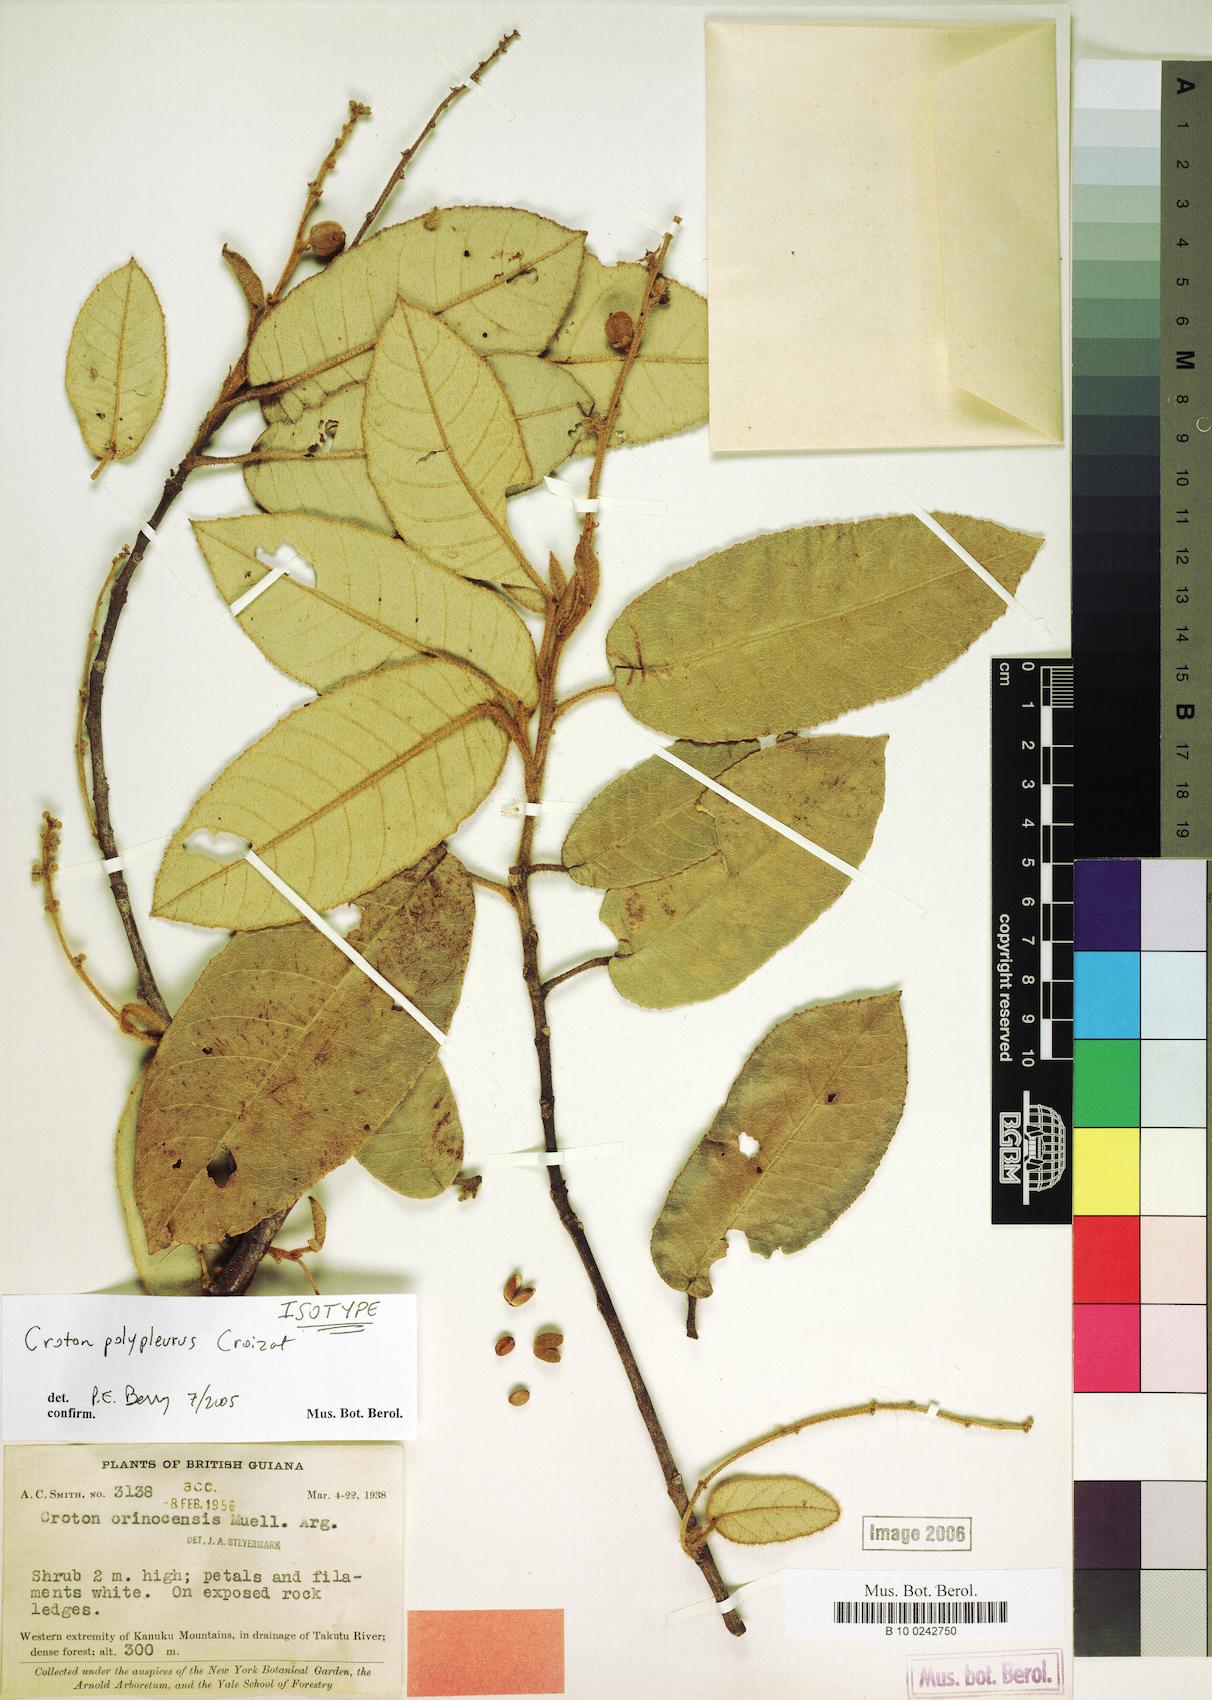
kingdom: Plantae
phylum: Tracheophyta
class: Magnoliopsida
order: Malpighiales
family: Euphorbiaceae
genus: Croton
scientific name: Croton polypleurus
